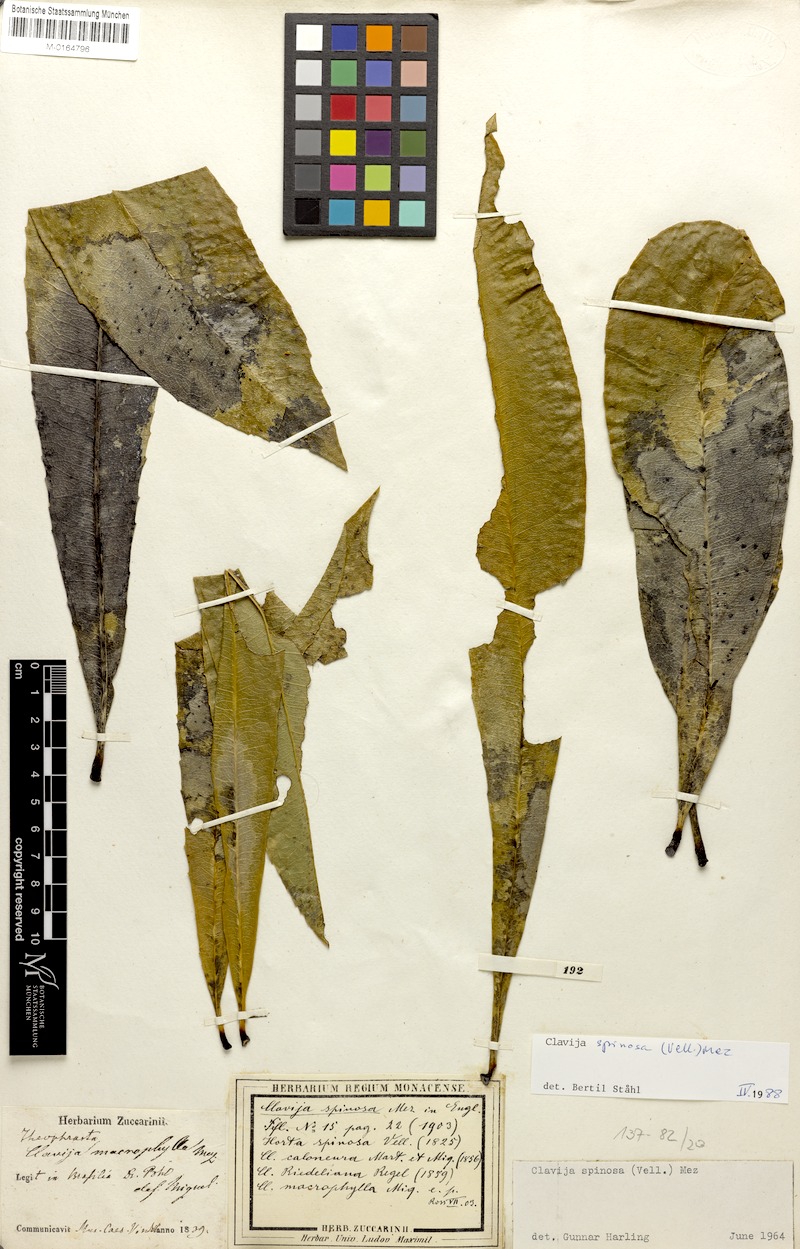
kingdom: Plantae
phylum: Tracheophyta
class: Magnoliopsida
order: Ericales
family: Primulaceae
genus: Clavija
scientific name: Clavija spinosa
